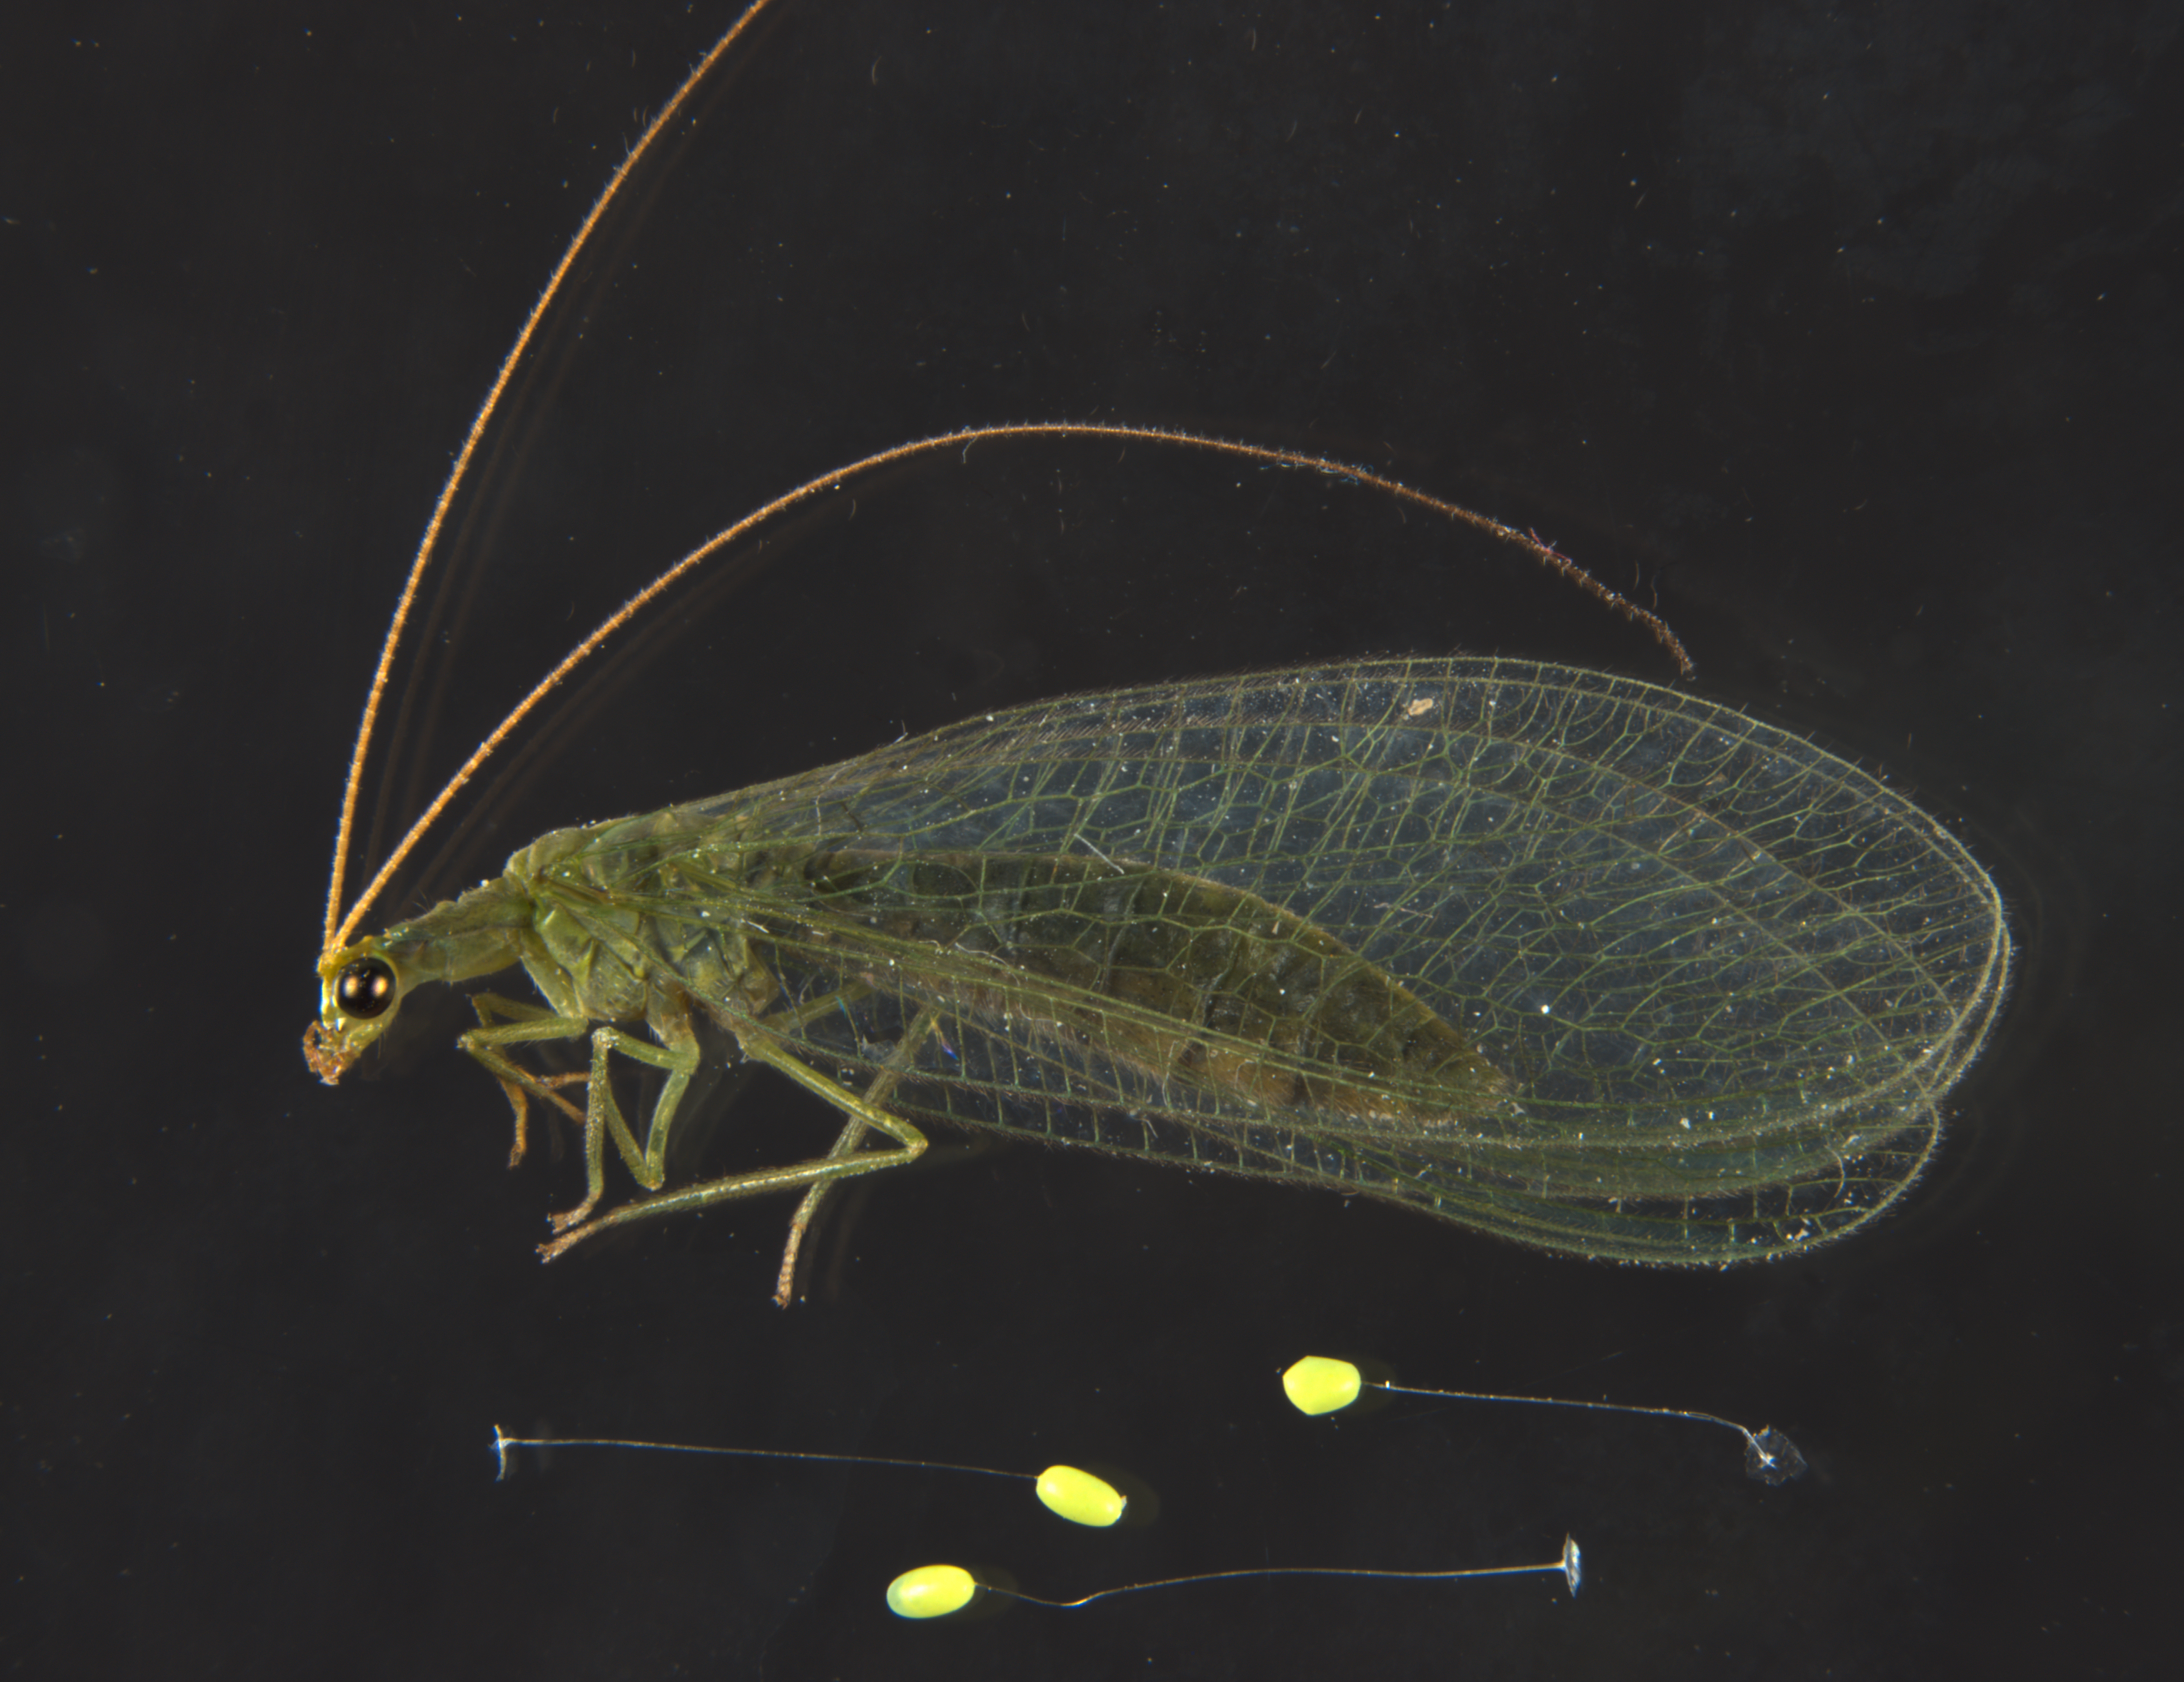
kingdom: Animalia
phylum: Arthropoda
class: Insecta
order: Neuroptera
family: Chrysopidae
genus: Mallada
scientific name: Mallada basalis
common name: Green lacewing
